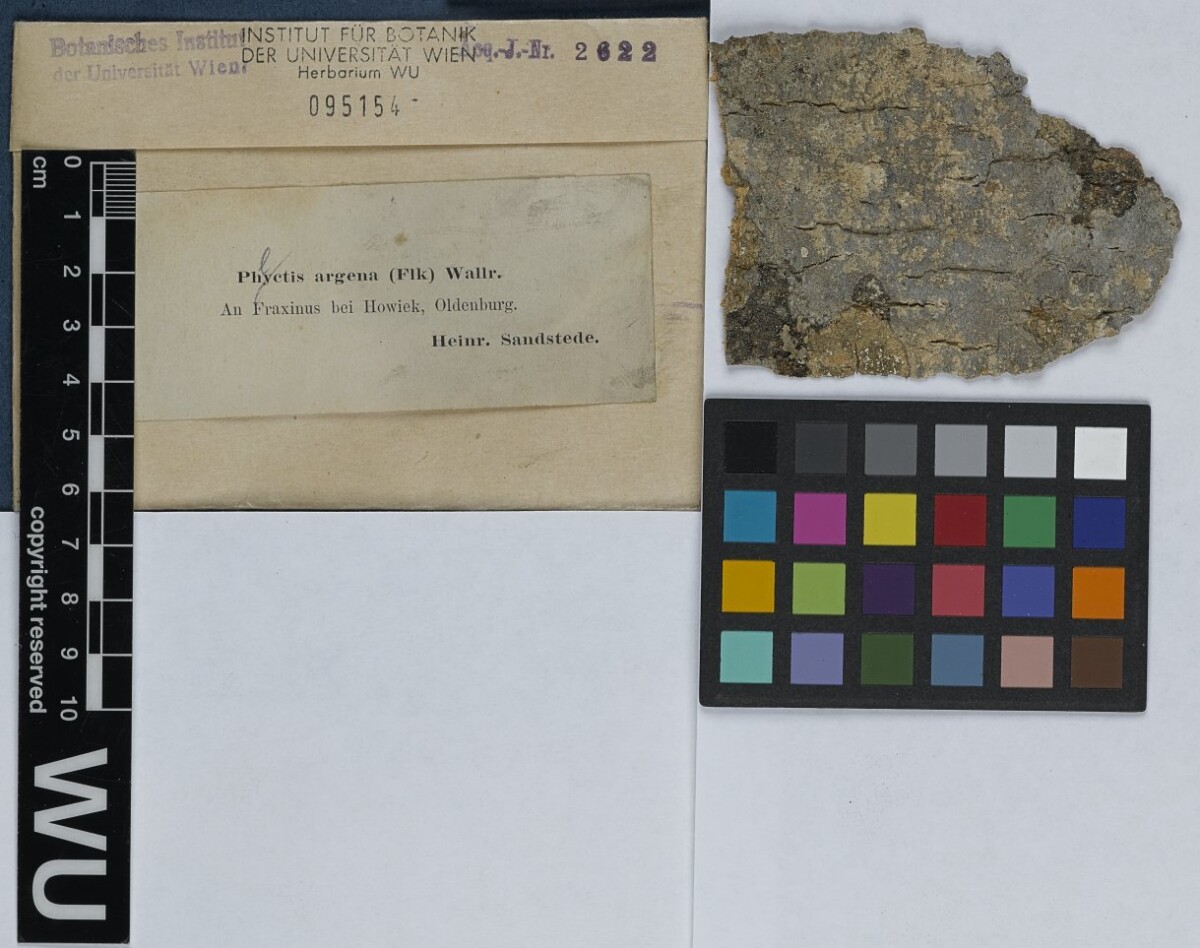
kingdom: Fungi
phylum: Ascomycota
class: Lecanoromycetes
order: Ostropales
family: Phlyctidaceae
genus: Phlyctis
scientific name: Phlyctis argena
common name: Whitewash lichen
